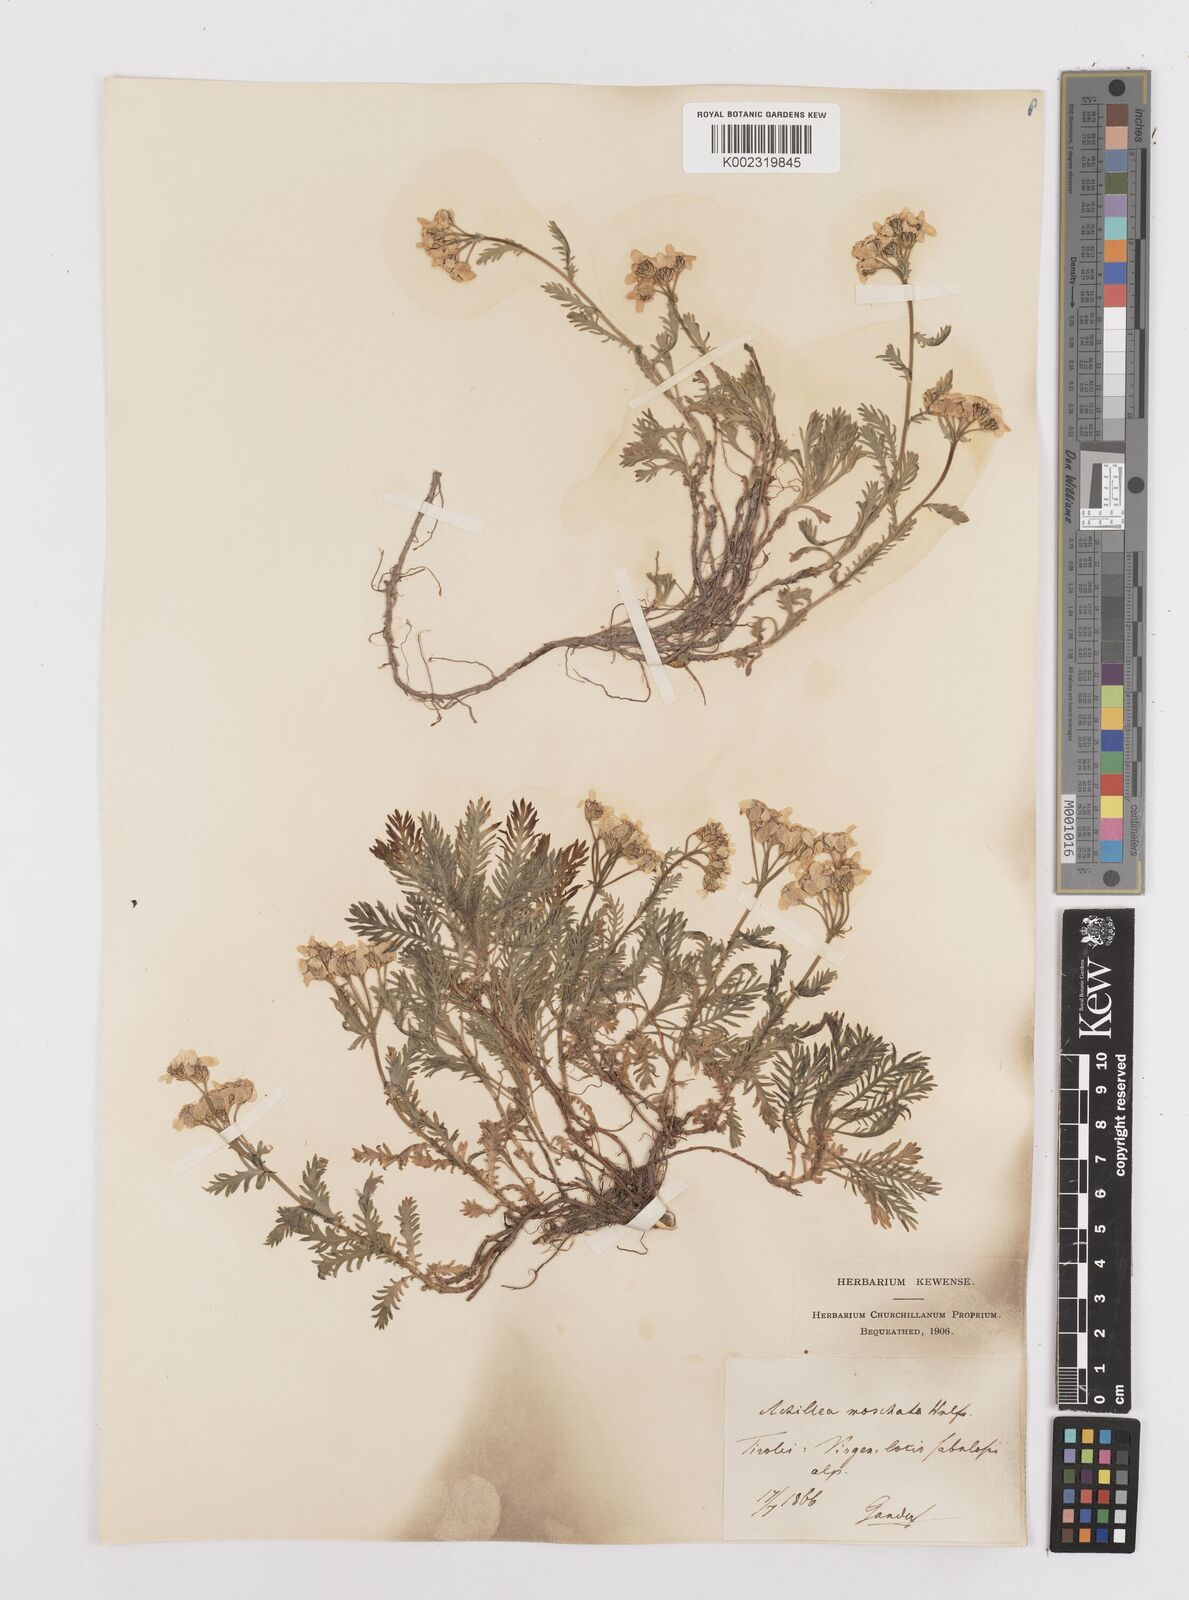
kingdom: Plantae
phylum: Tracheophyta
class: Magnoliopsida
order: Asterales
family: Asteraceae
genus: Achillea
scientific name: Achillea erba-rotta
